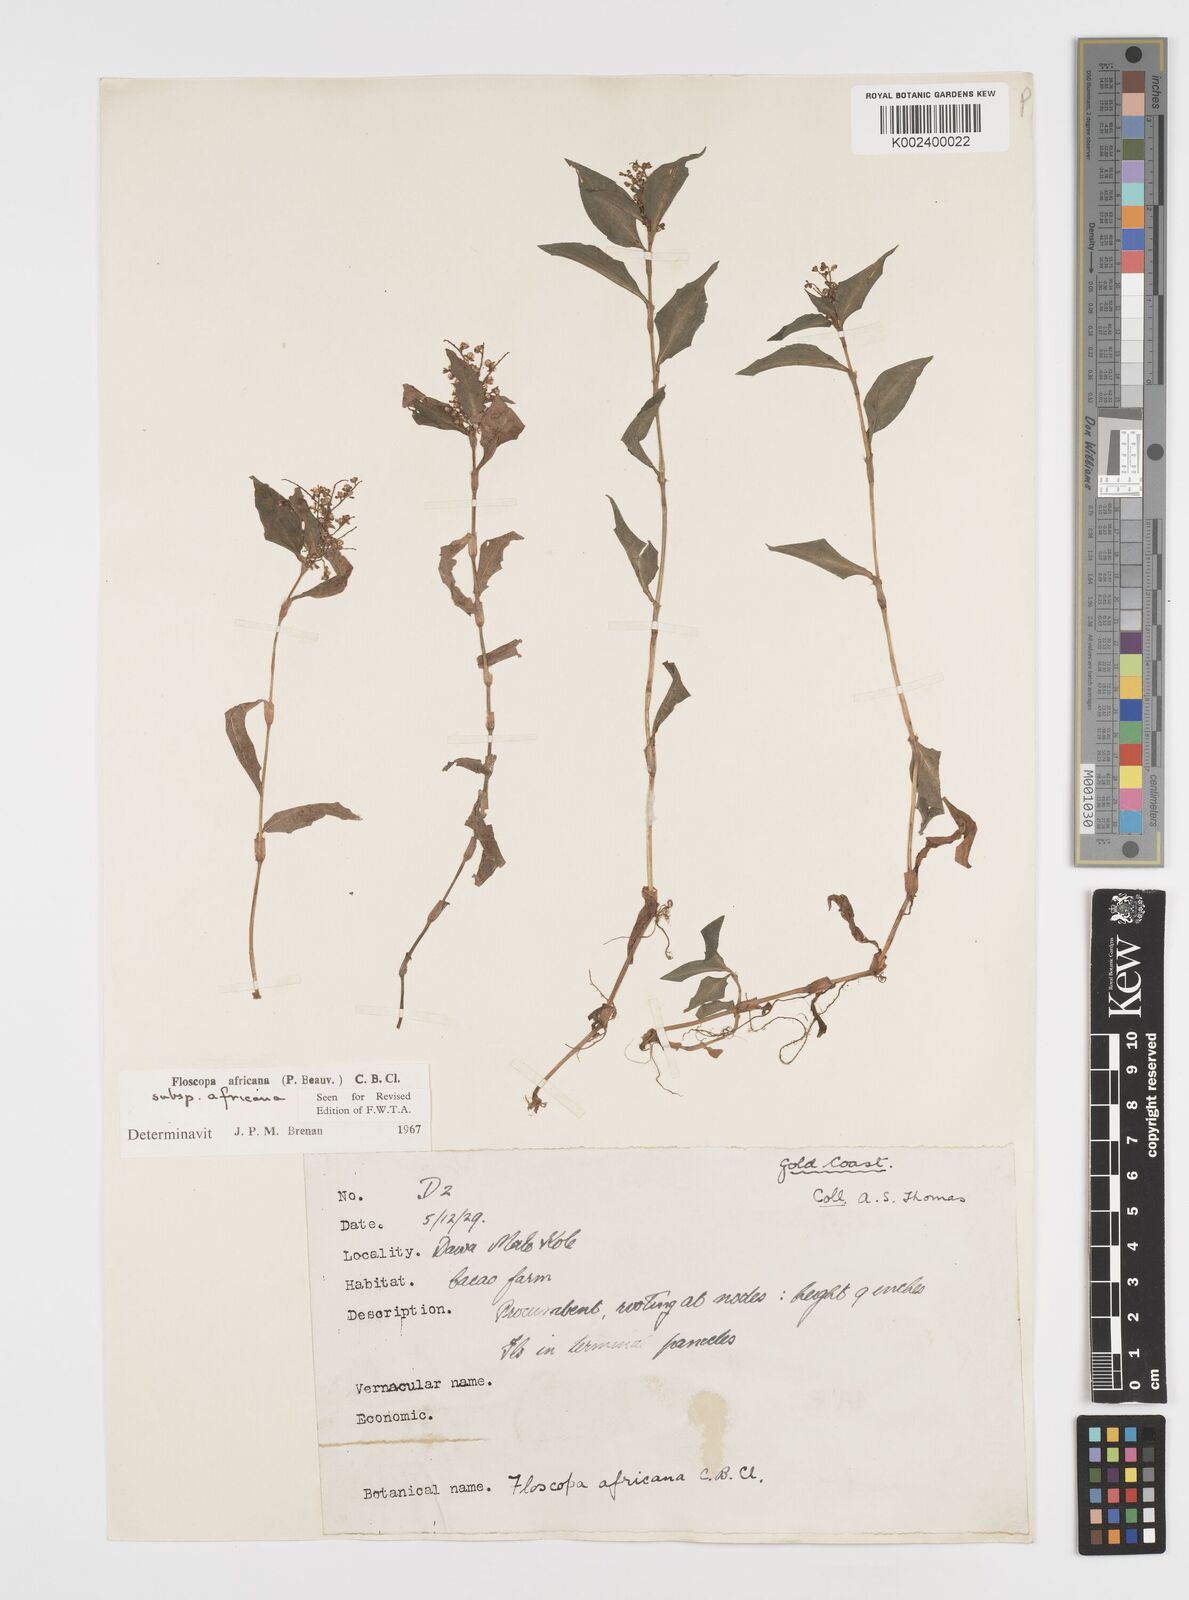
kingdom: Plantae
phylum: Tracheophyta
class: Liliopsida
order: Commelinales
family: Commelinaceae
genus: Floscopa
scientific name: Floscopa africana
